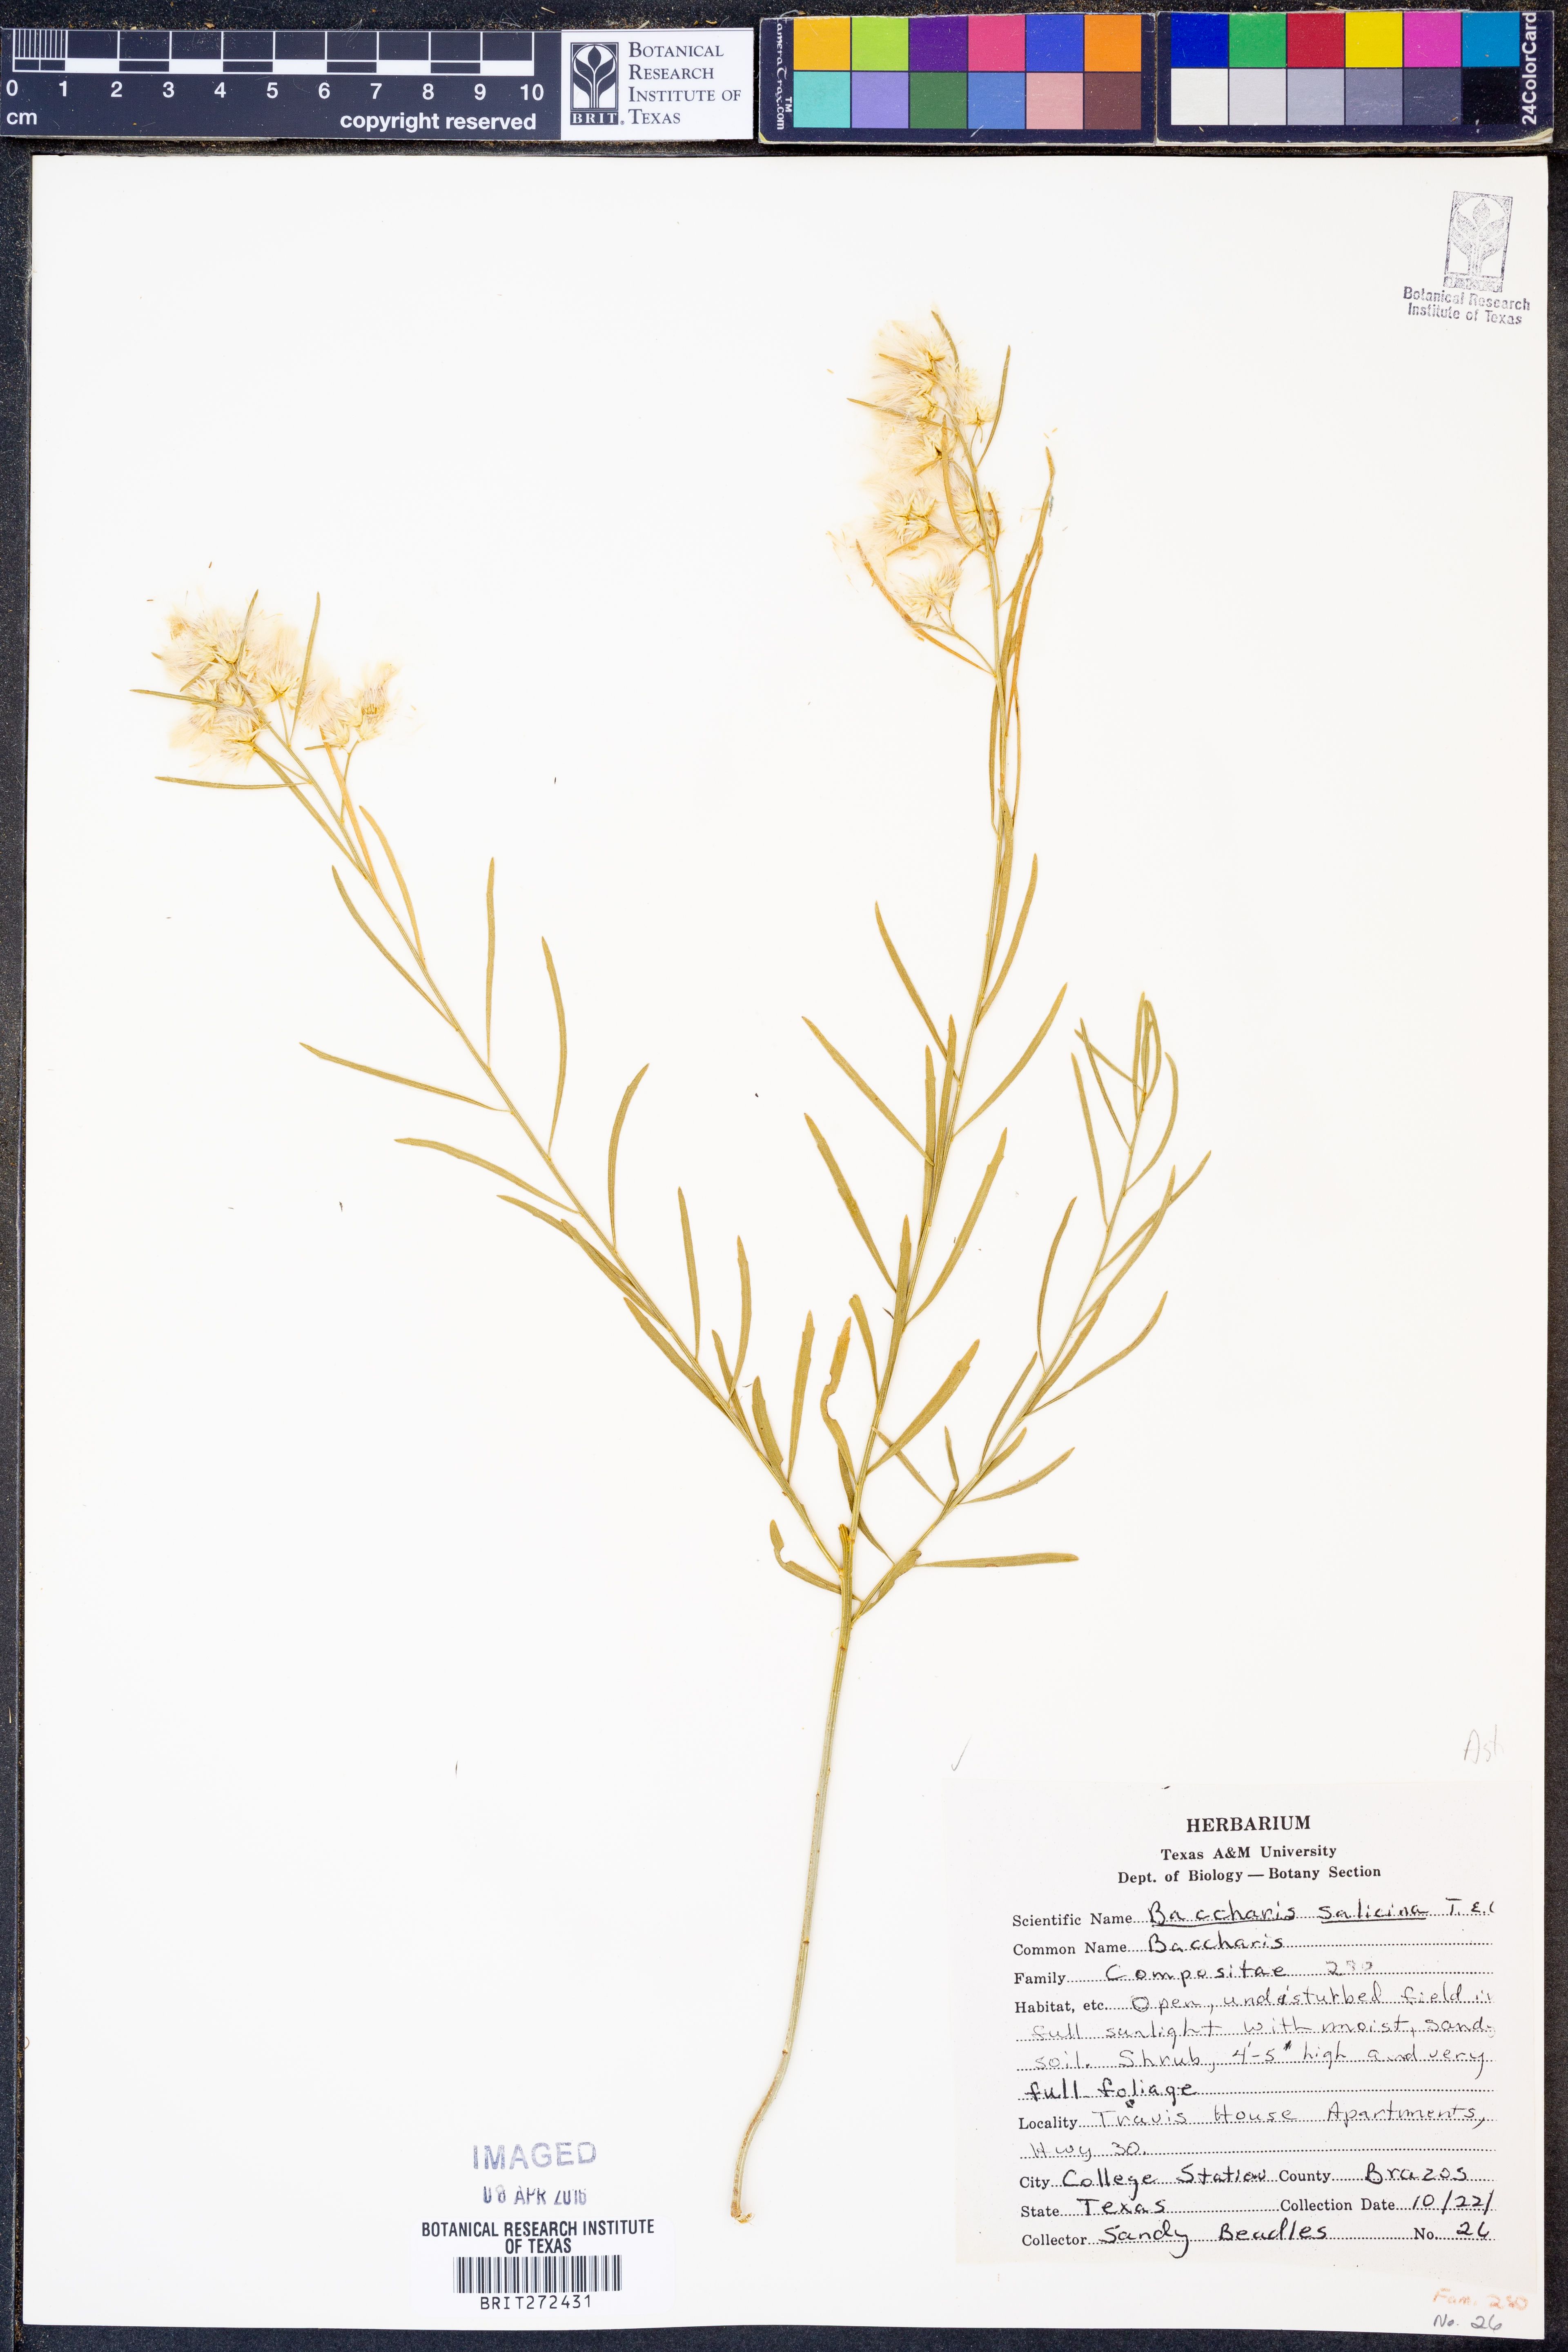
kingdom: Plantae
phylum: Tracheophyta
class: Magnoliopsida
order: Asterales
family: Asteraceae
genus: Baccharis
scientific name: Baccharis salicina
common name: Willow baccharis
